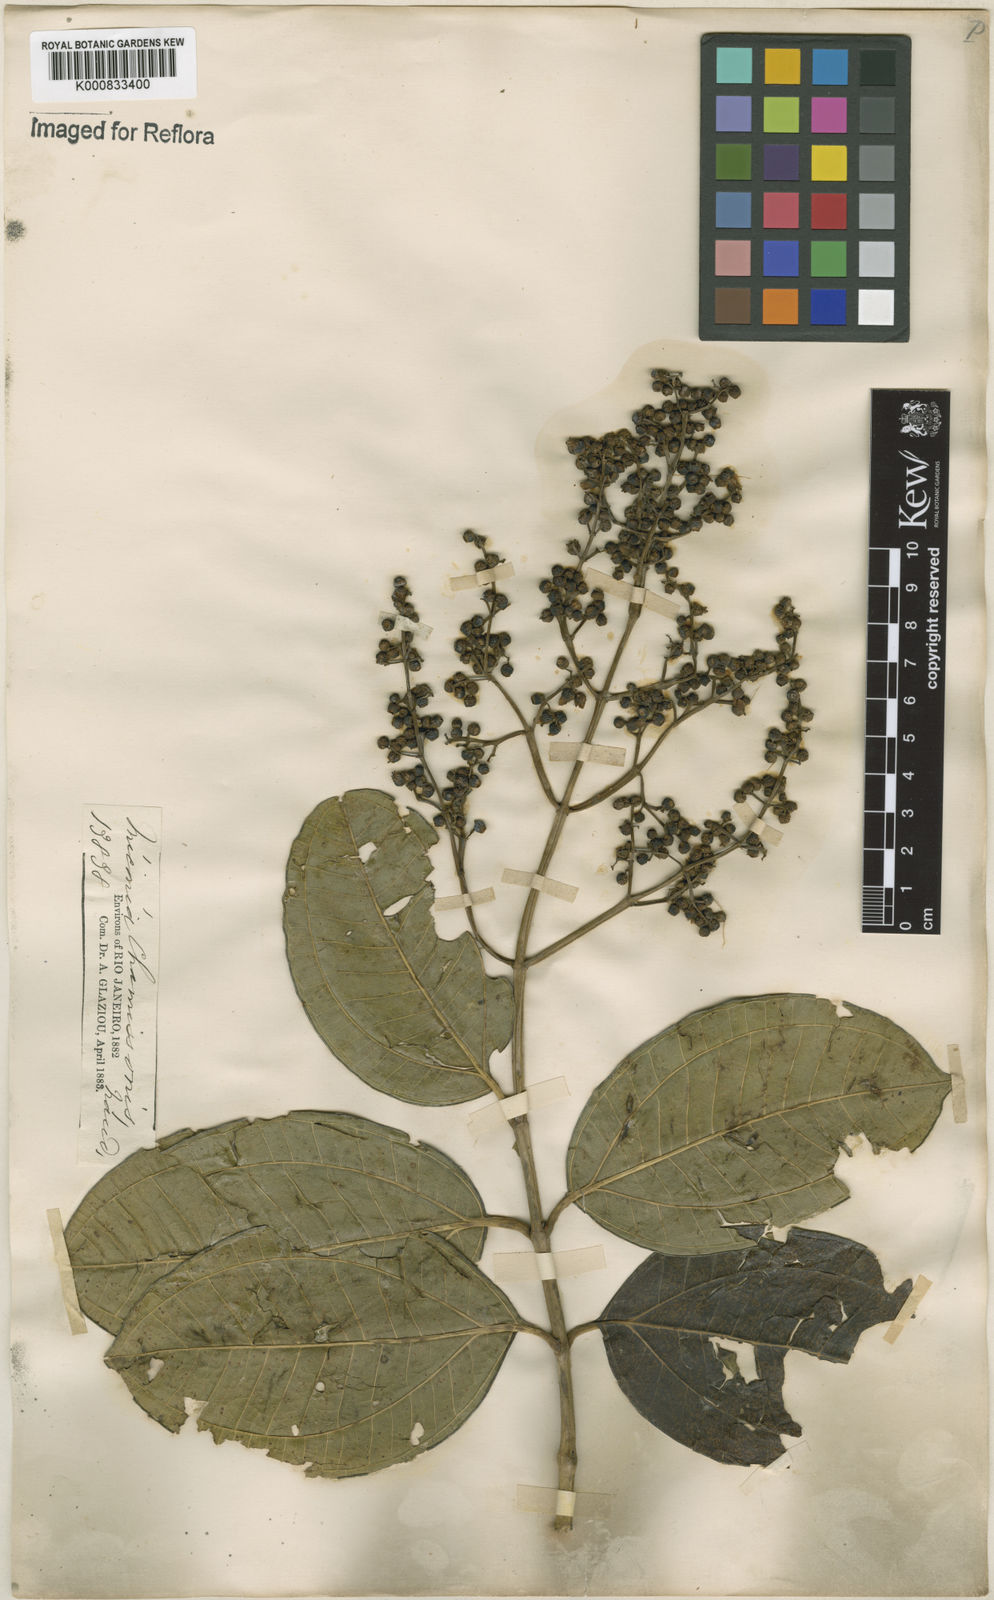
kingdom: Plantae
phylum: Tracheophyta
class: Magnoliopsida
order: Myrtales
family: Melastomataceae
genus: Miconia
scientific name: Miconia chamissois
